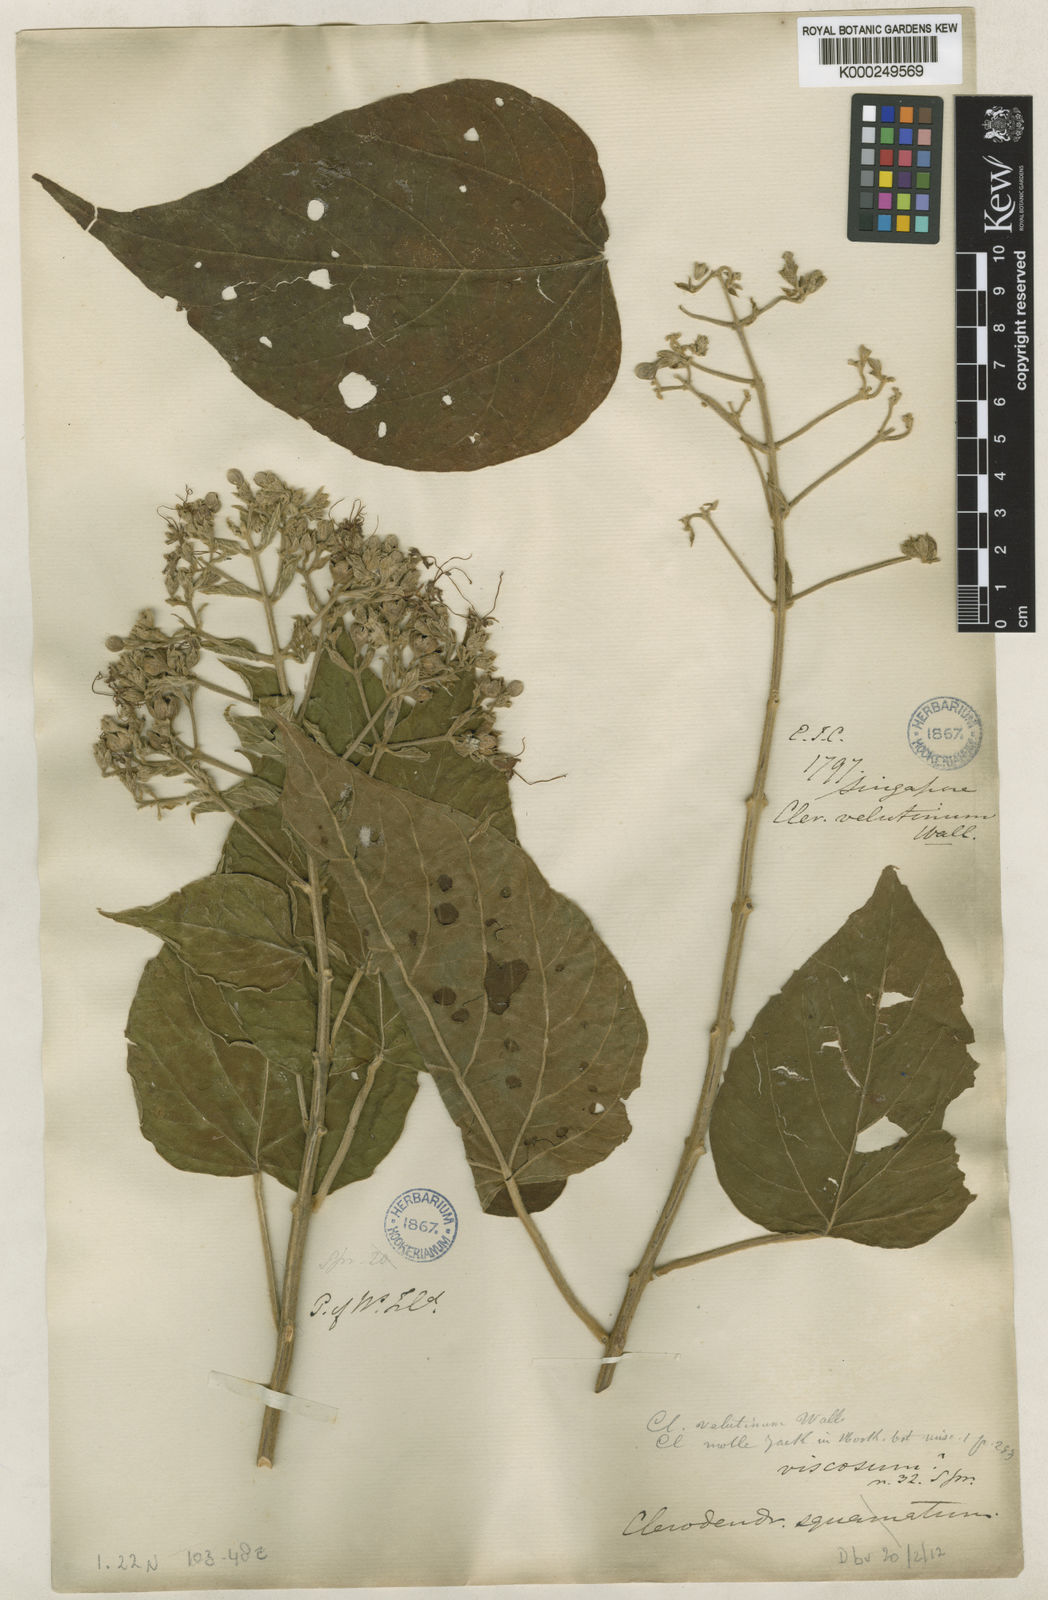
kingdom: Plantae
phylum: Tracheophyta
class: Magnoliopsida
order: Lamiales
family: Lamiaceae
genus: Clerodendrum
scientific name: Clerodendrum
